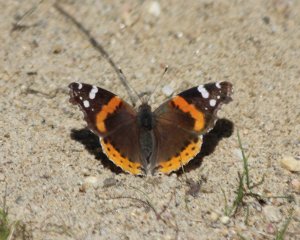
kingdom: Animalia
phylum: Arthropoda
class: Insecta
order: Lepidoptera
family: Nymphalidae
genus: Vanessa
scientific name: Vanessa atalanta
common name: Red Admiral
